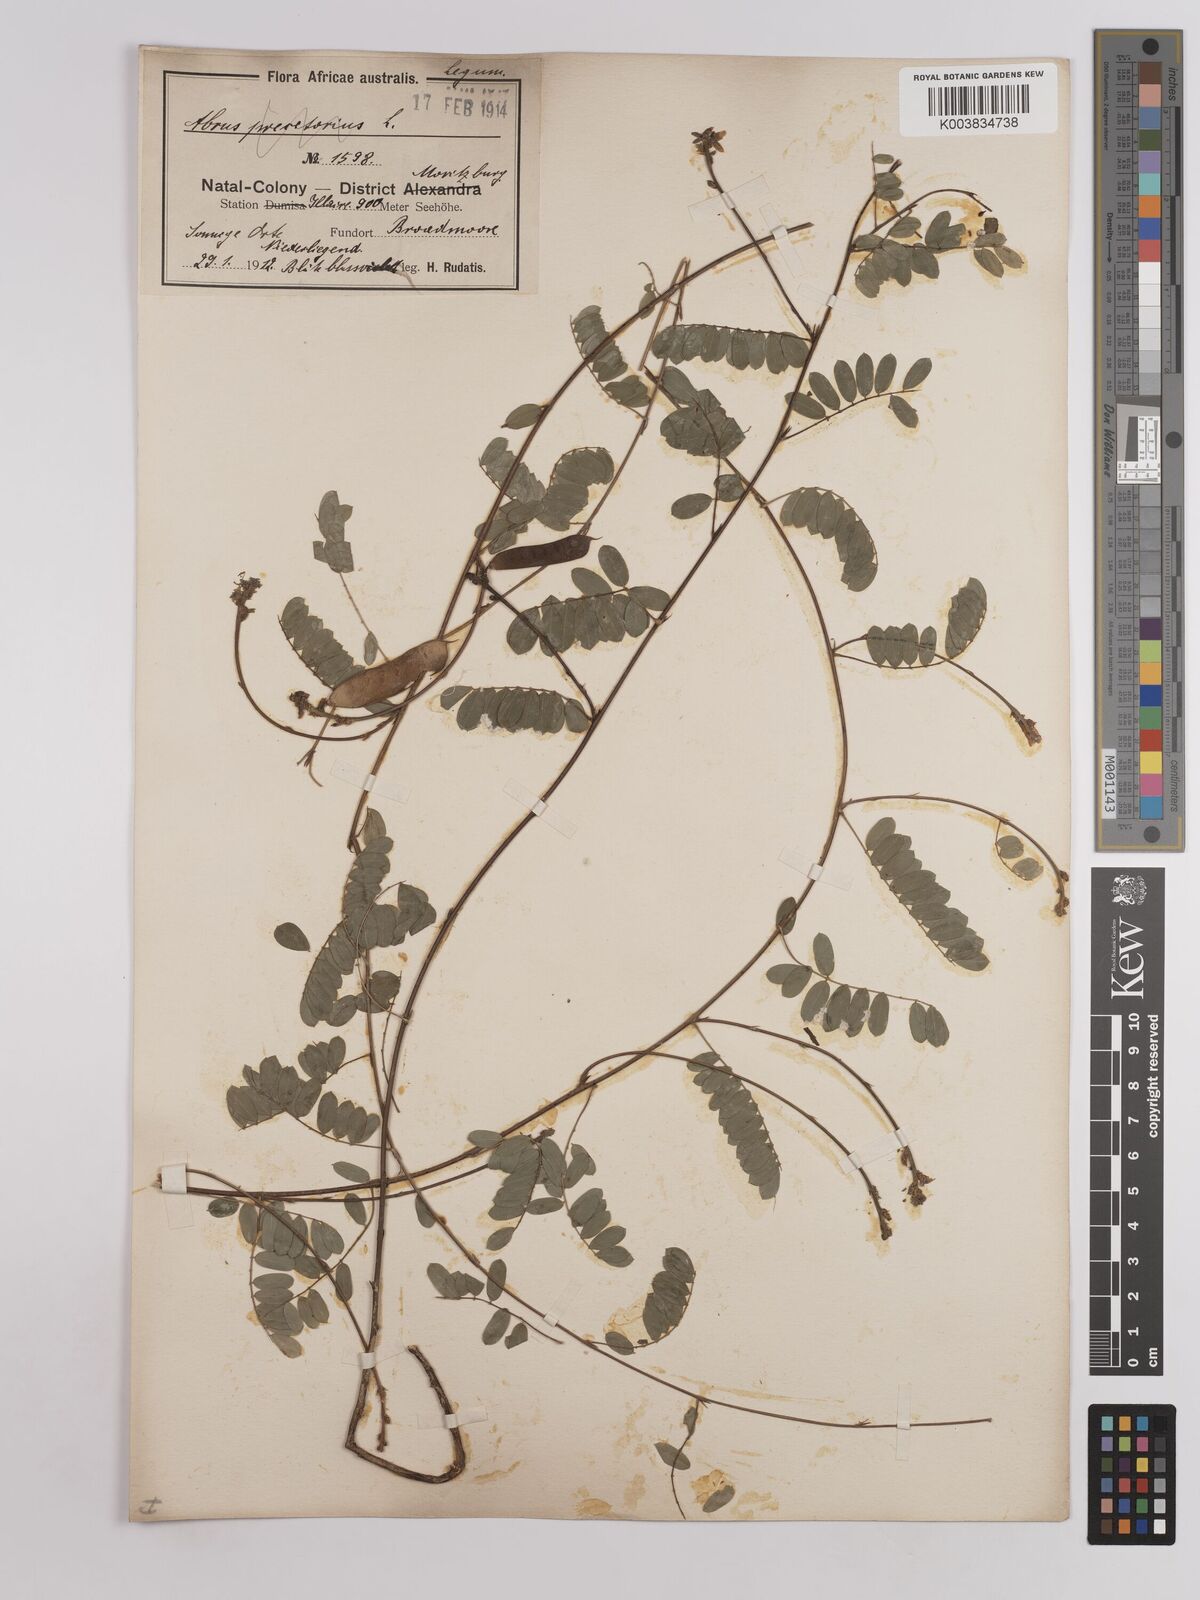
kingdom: Plantae
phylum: Tracheophyta
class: Magnoliopsida
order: Fabales
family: Fabaceae
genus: Abrus
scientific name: Abrus laevigatus
